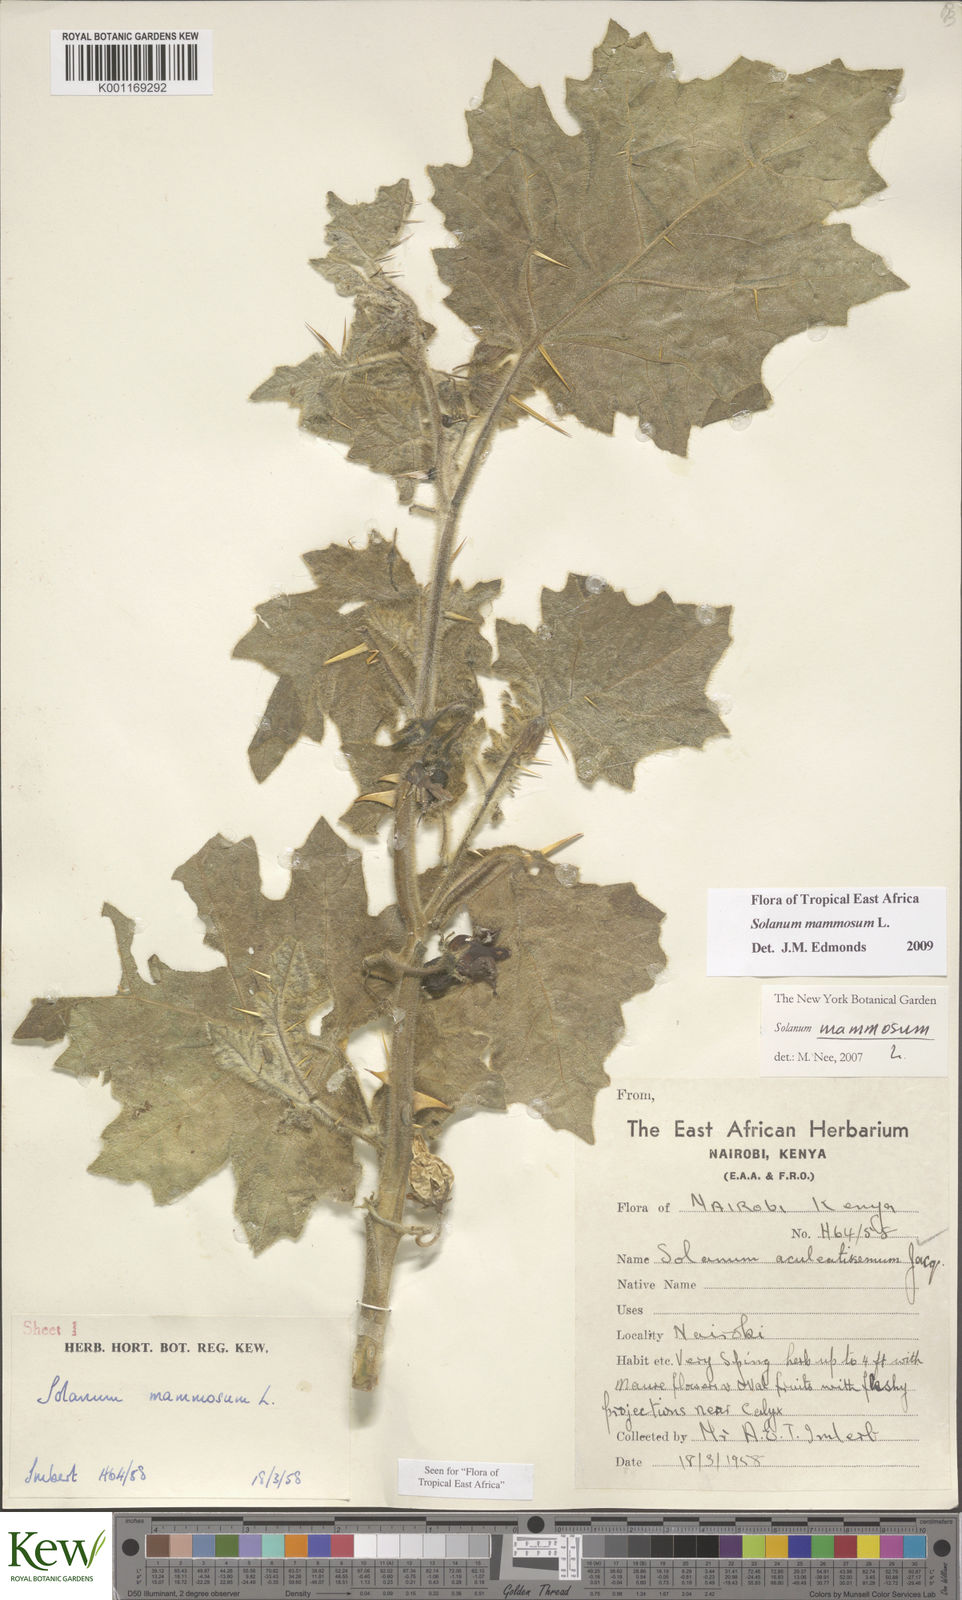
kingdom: Plantae
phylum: Tracheophyta
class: Magnoliopsida
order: Solanales
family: Solanaceae
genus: Solanum
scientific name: Solanum mammosum
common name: Nipple fruit
